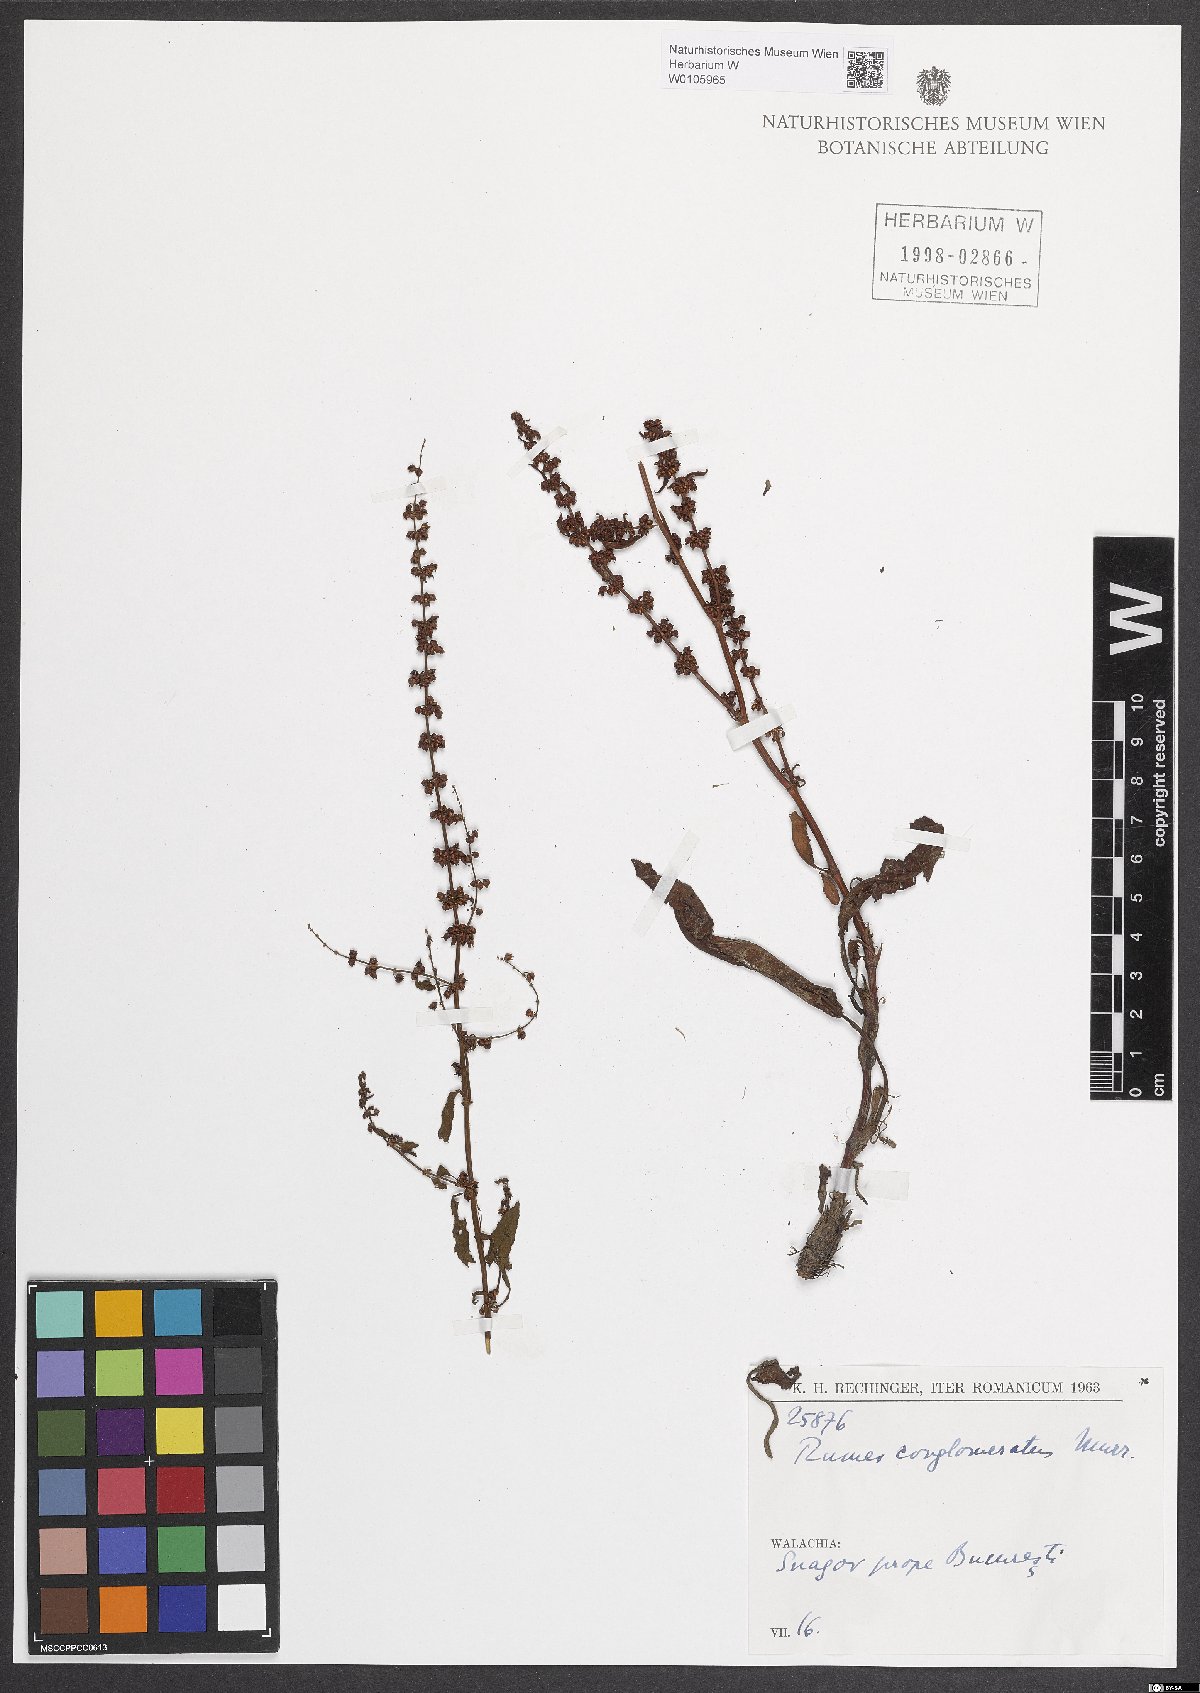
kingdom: Plantae
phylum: Tracheophyta
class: Magnoliopsida
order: Caryophyllales
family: Polygonaceae
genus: Rumex
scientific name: Rumex conglomeratus
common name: Clustered dock
